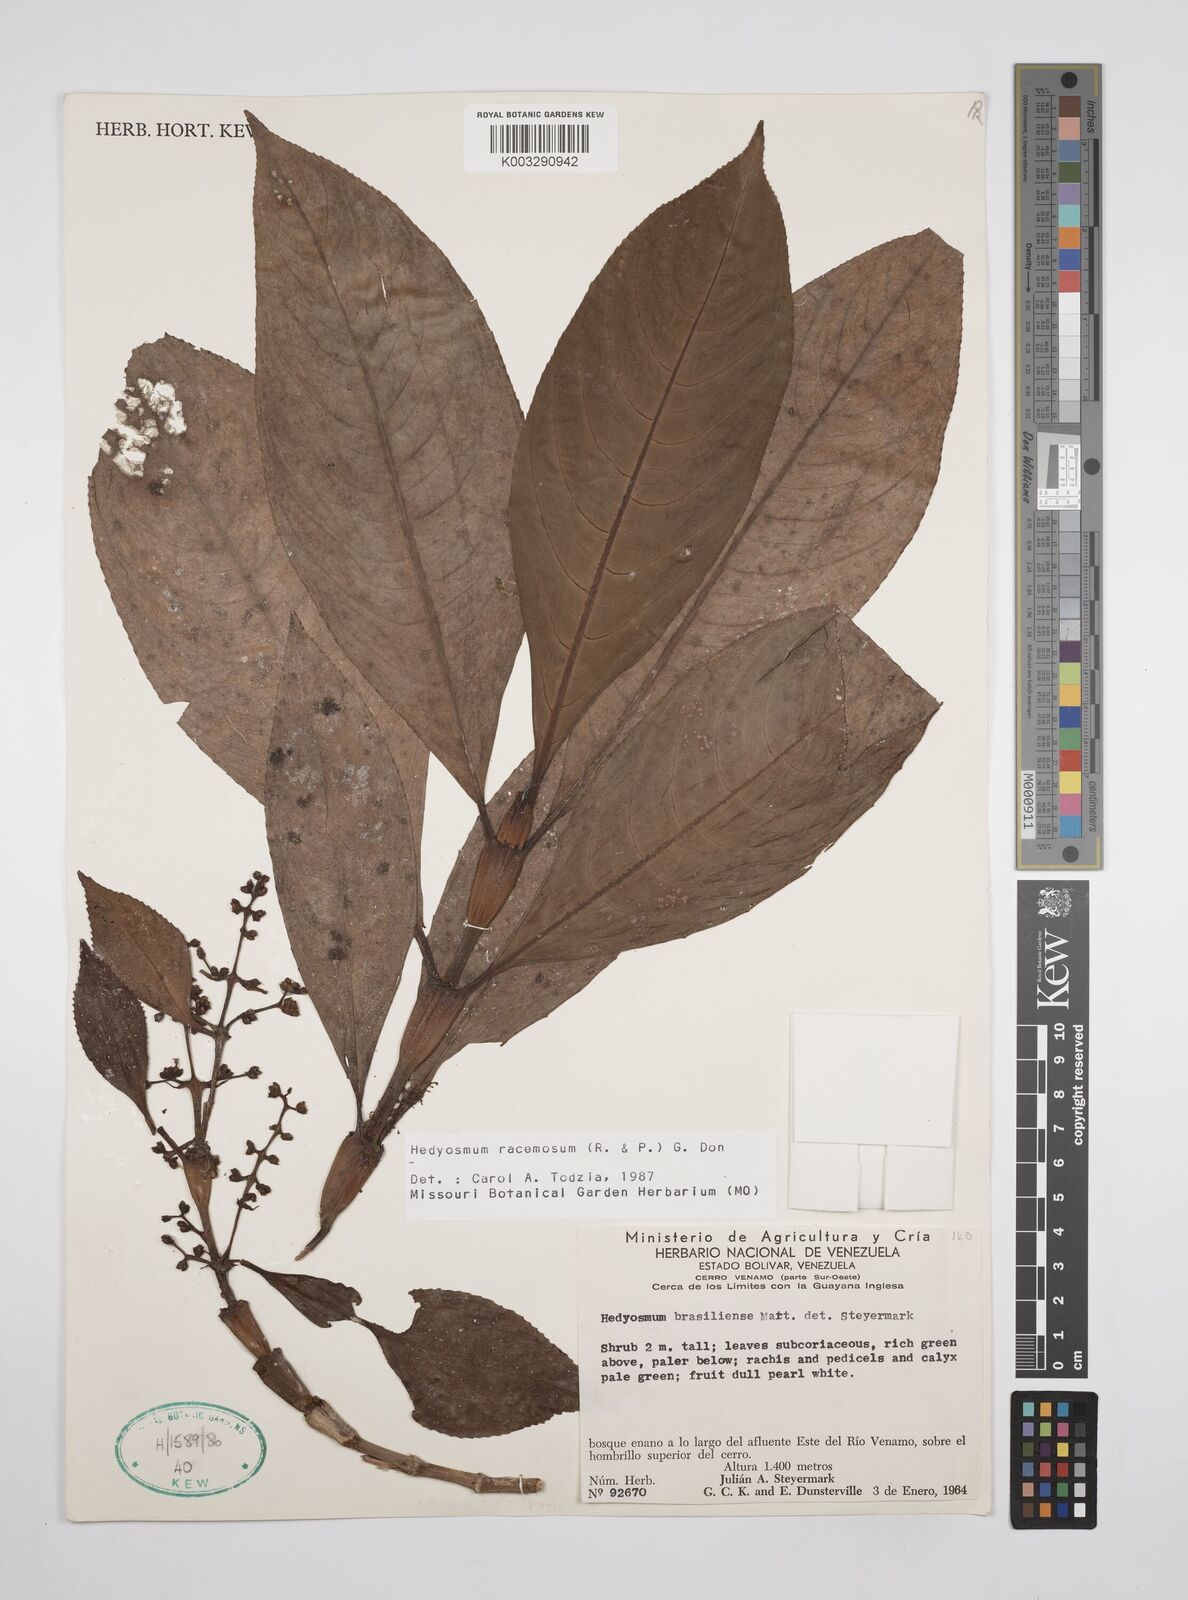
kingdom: Plantae
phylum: Tracheophyta
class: Magnoliopsida
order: Chloranthales
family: Chloranthaceae
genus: Hedyosmum
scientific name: Hedyosmum racemosum
